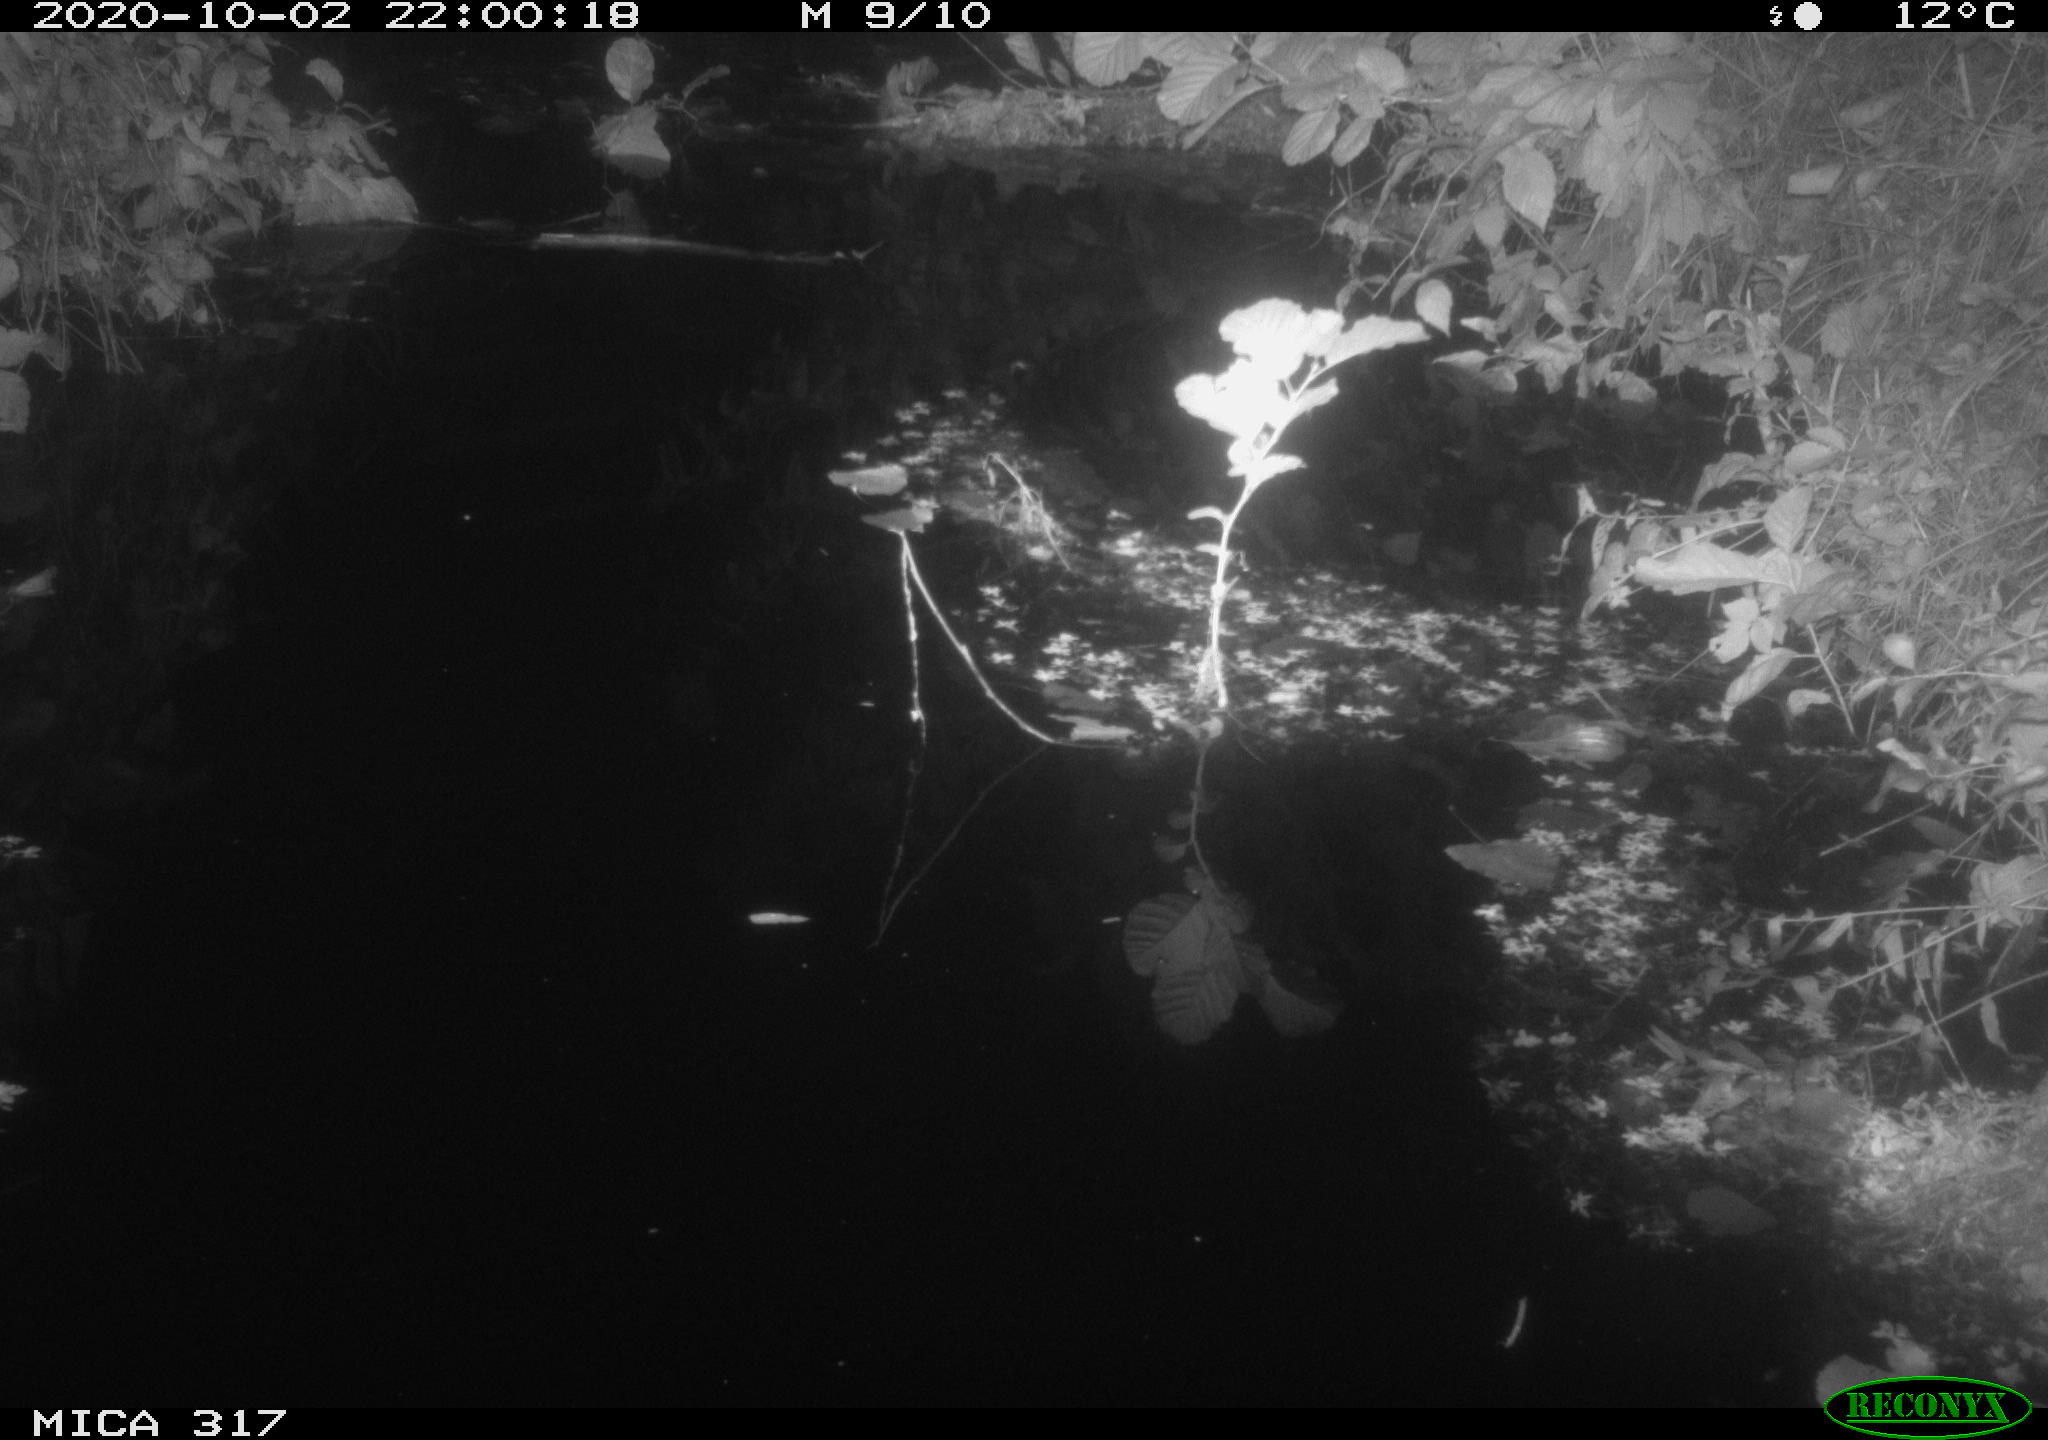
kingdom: Animalia
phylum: Chordata
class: Mammalia
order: Rodentia
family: Muridae
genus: Rattus
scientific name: Rattus norvegicus
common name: Brown rat
